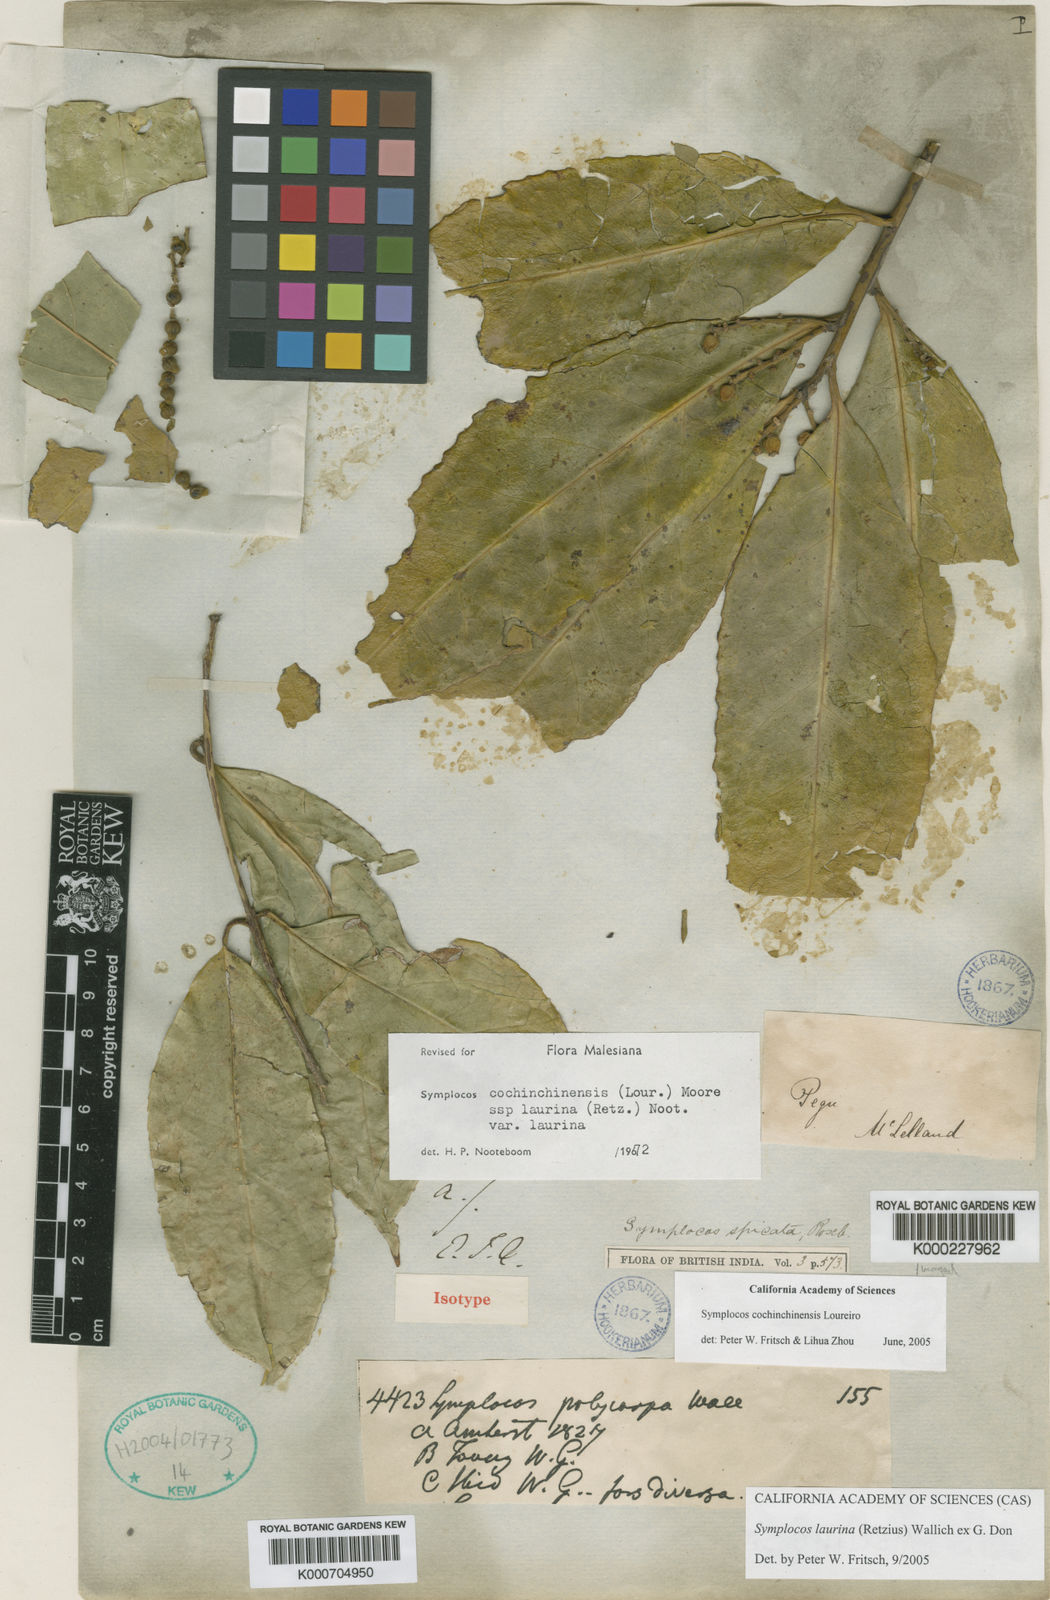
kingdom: Plantae
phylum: Tracheophyta
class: Magnoliopsida
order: Ericales
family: Symplocaceae
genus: Symplocos
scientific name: Symplocos acuminata
